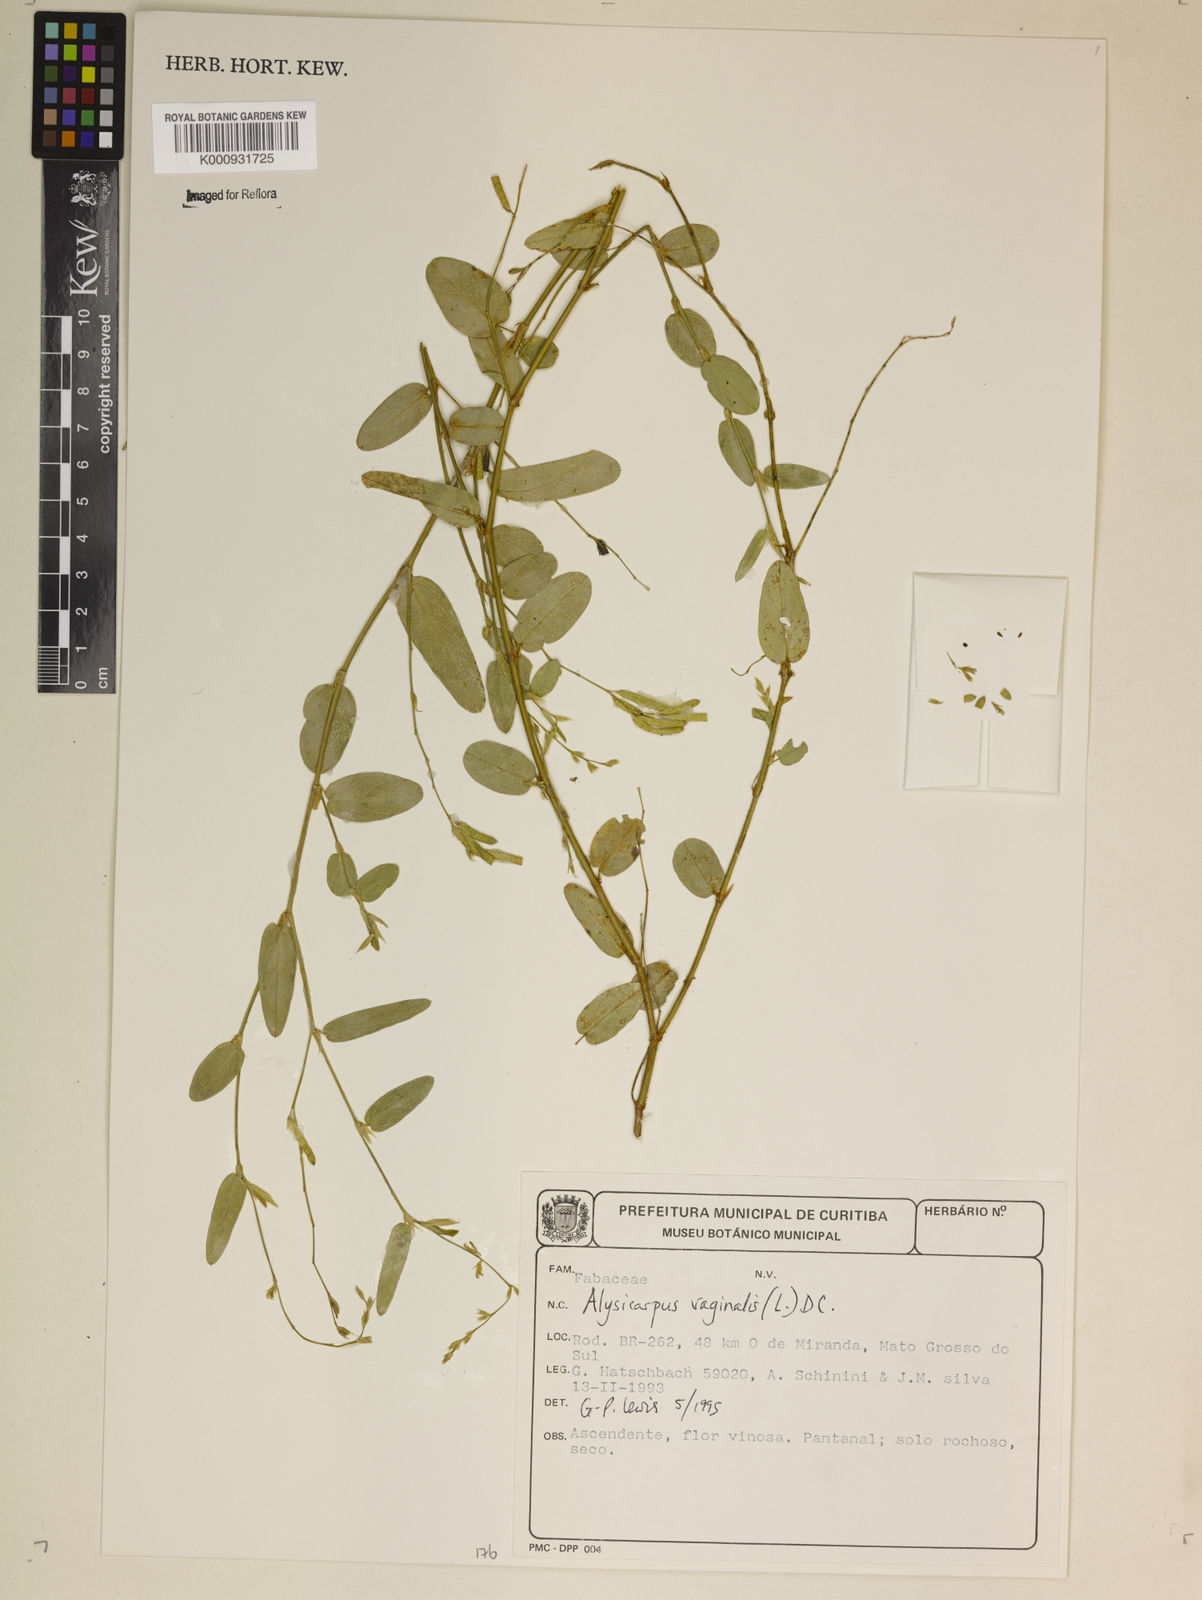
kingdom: Plantae
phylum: Tracheophyta
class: Magnoliopsida
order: Fabales
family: Fabaceae
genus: Alysicarpus
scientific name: Alysicarpus vaginalis
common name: White moneywort
